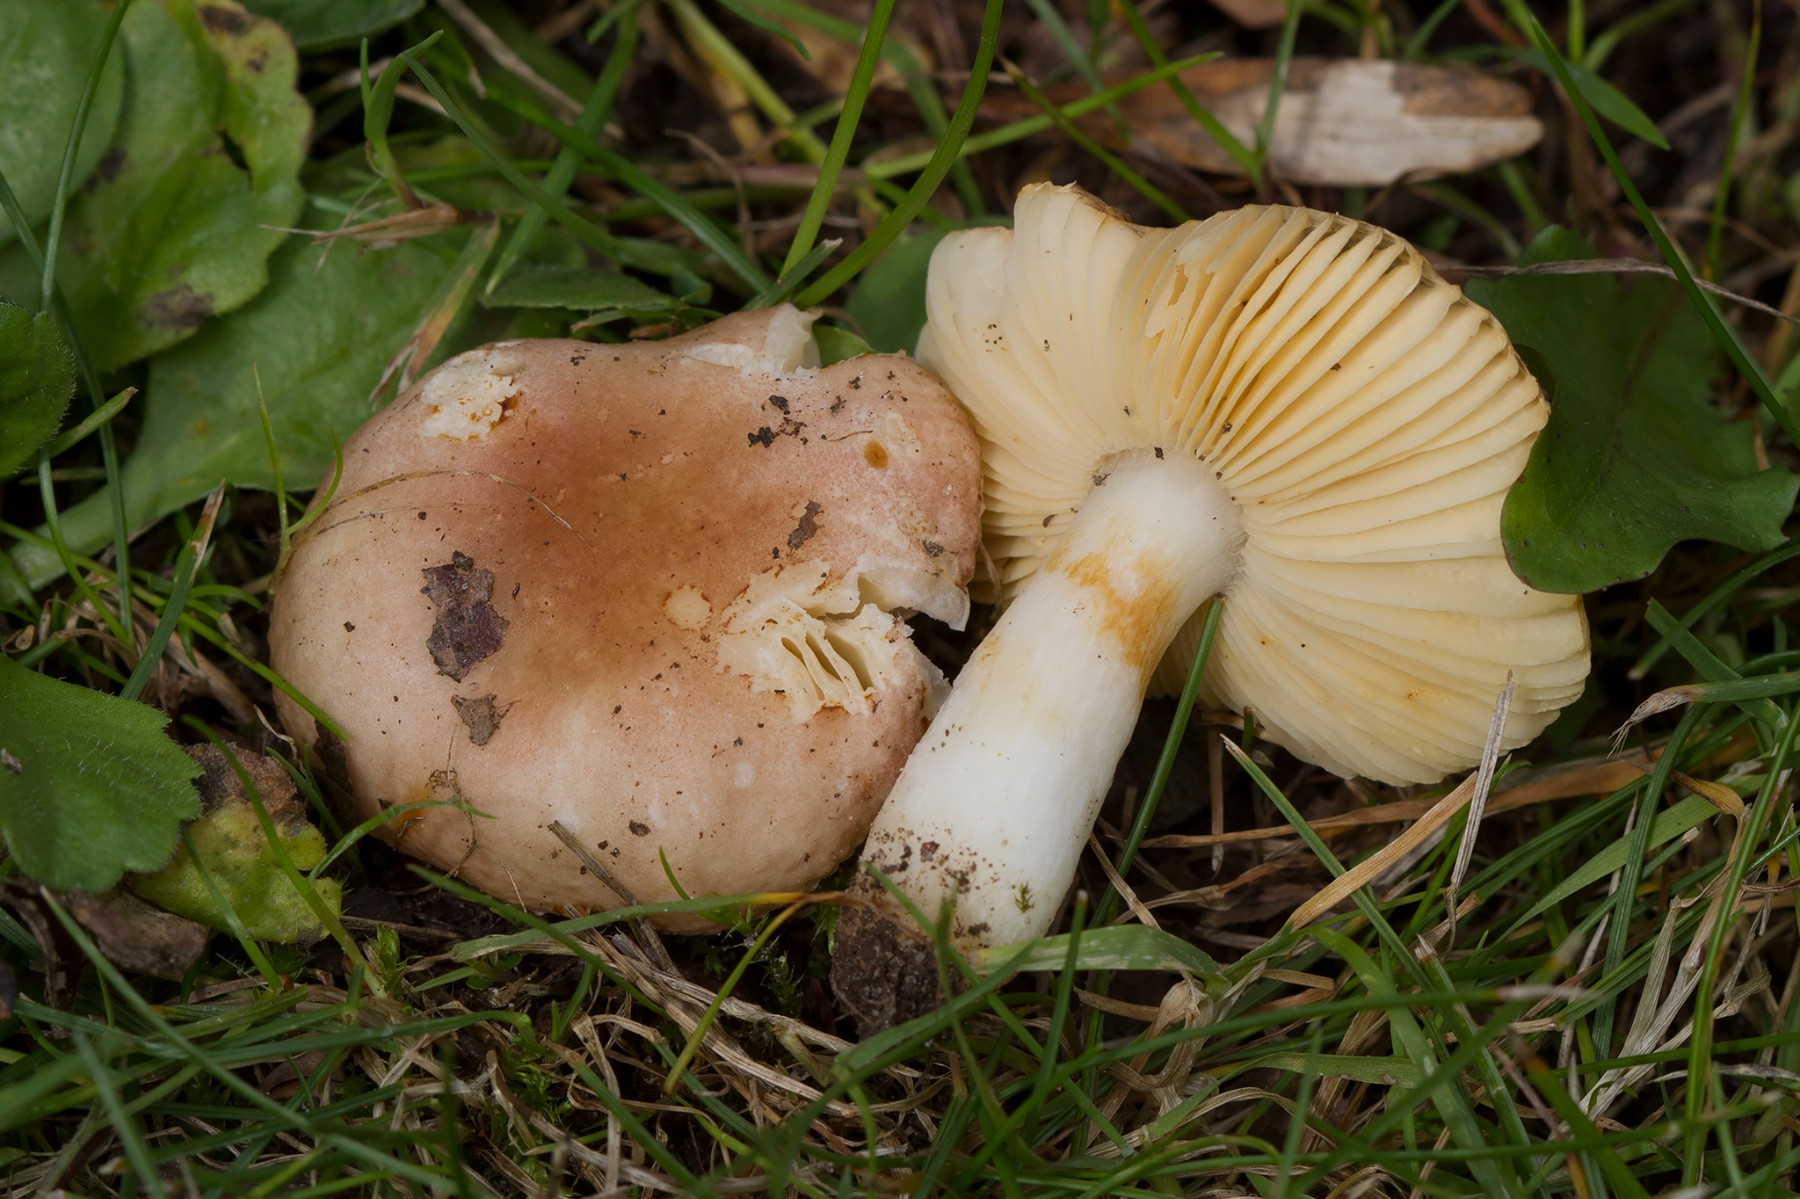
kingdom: Fungi
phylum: Basidiomycota
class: Agaricomycetes
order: Russulales
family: Russulaceae
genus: Russula
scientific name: Russula odorata
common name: duft-skørhat
